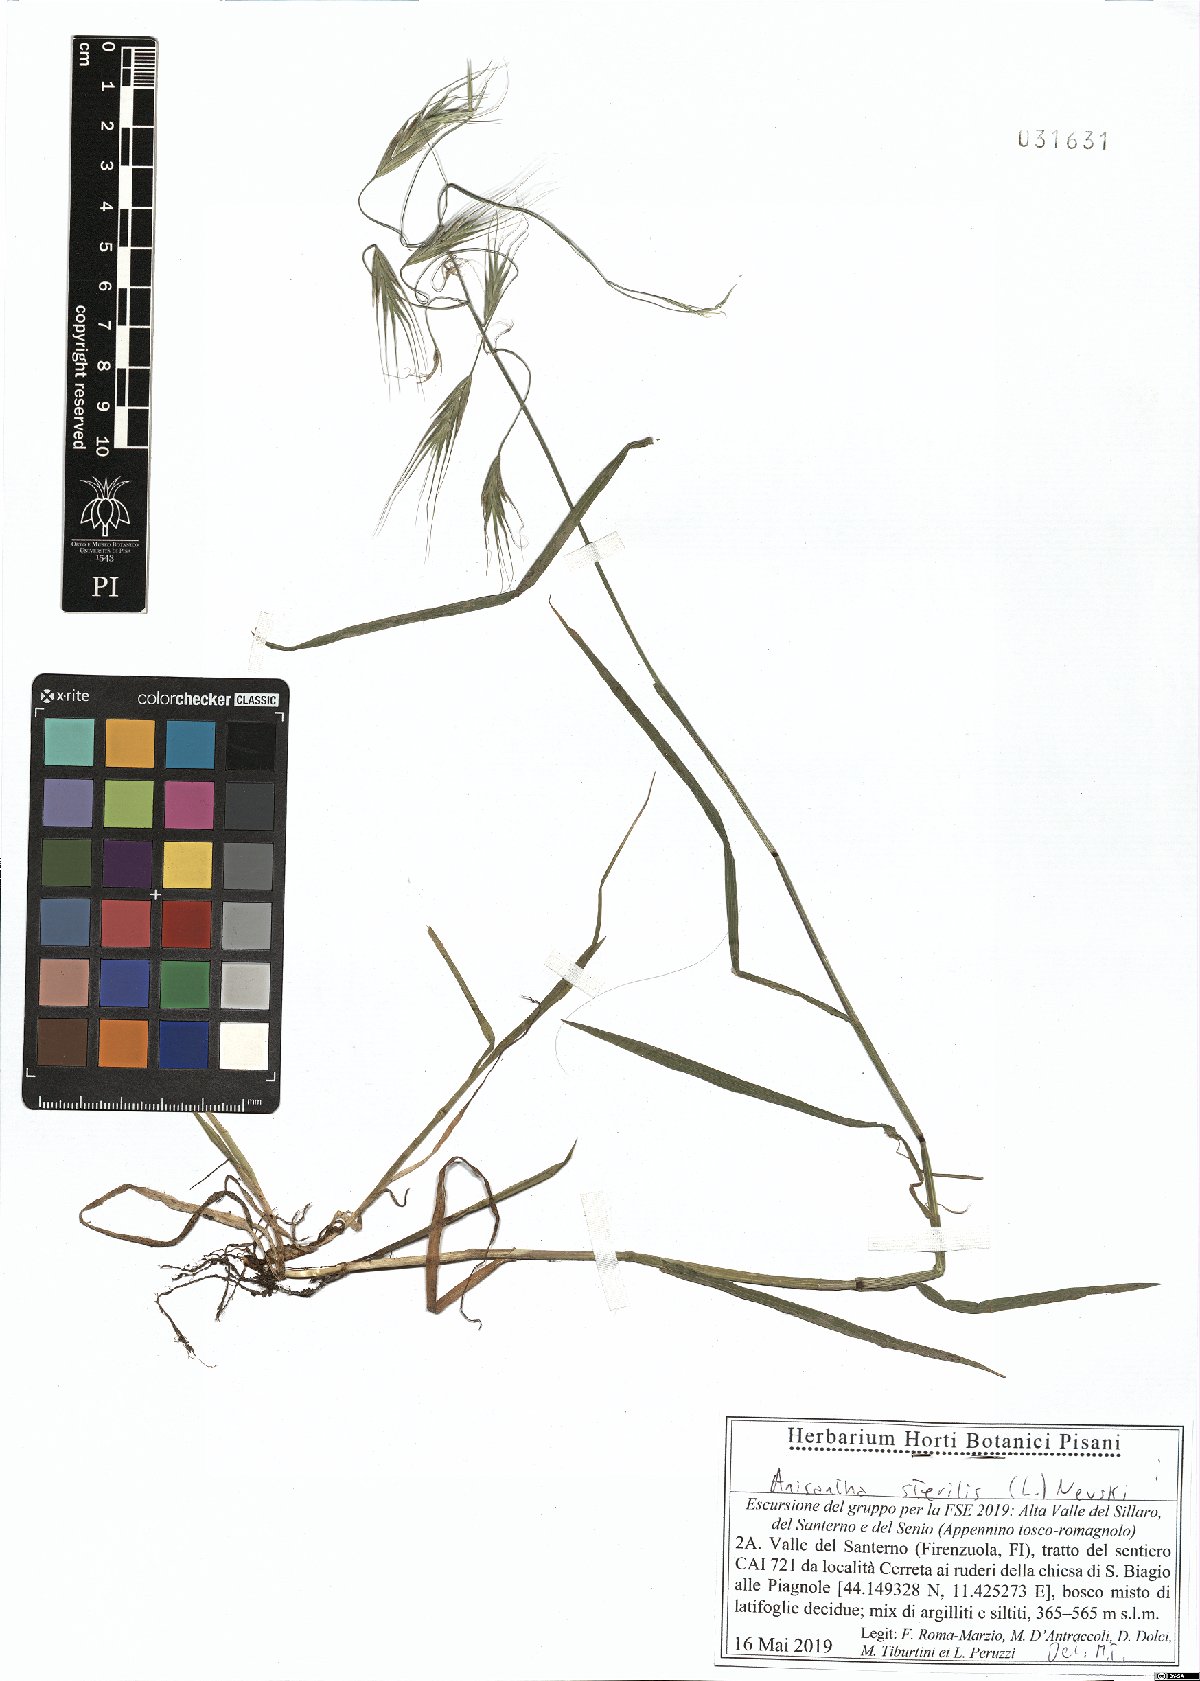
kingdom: Plantae
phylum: Tracheophyta
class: Liliopsida
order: Poales
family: Poaceae
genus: Bromus
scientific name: Bromus sterilis
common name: Poverty brome
